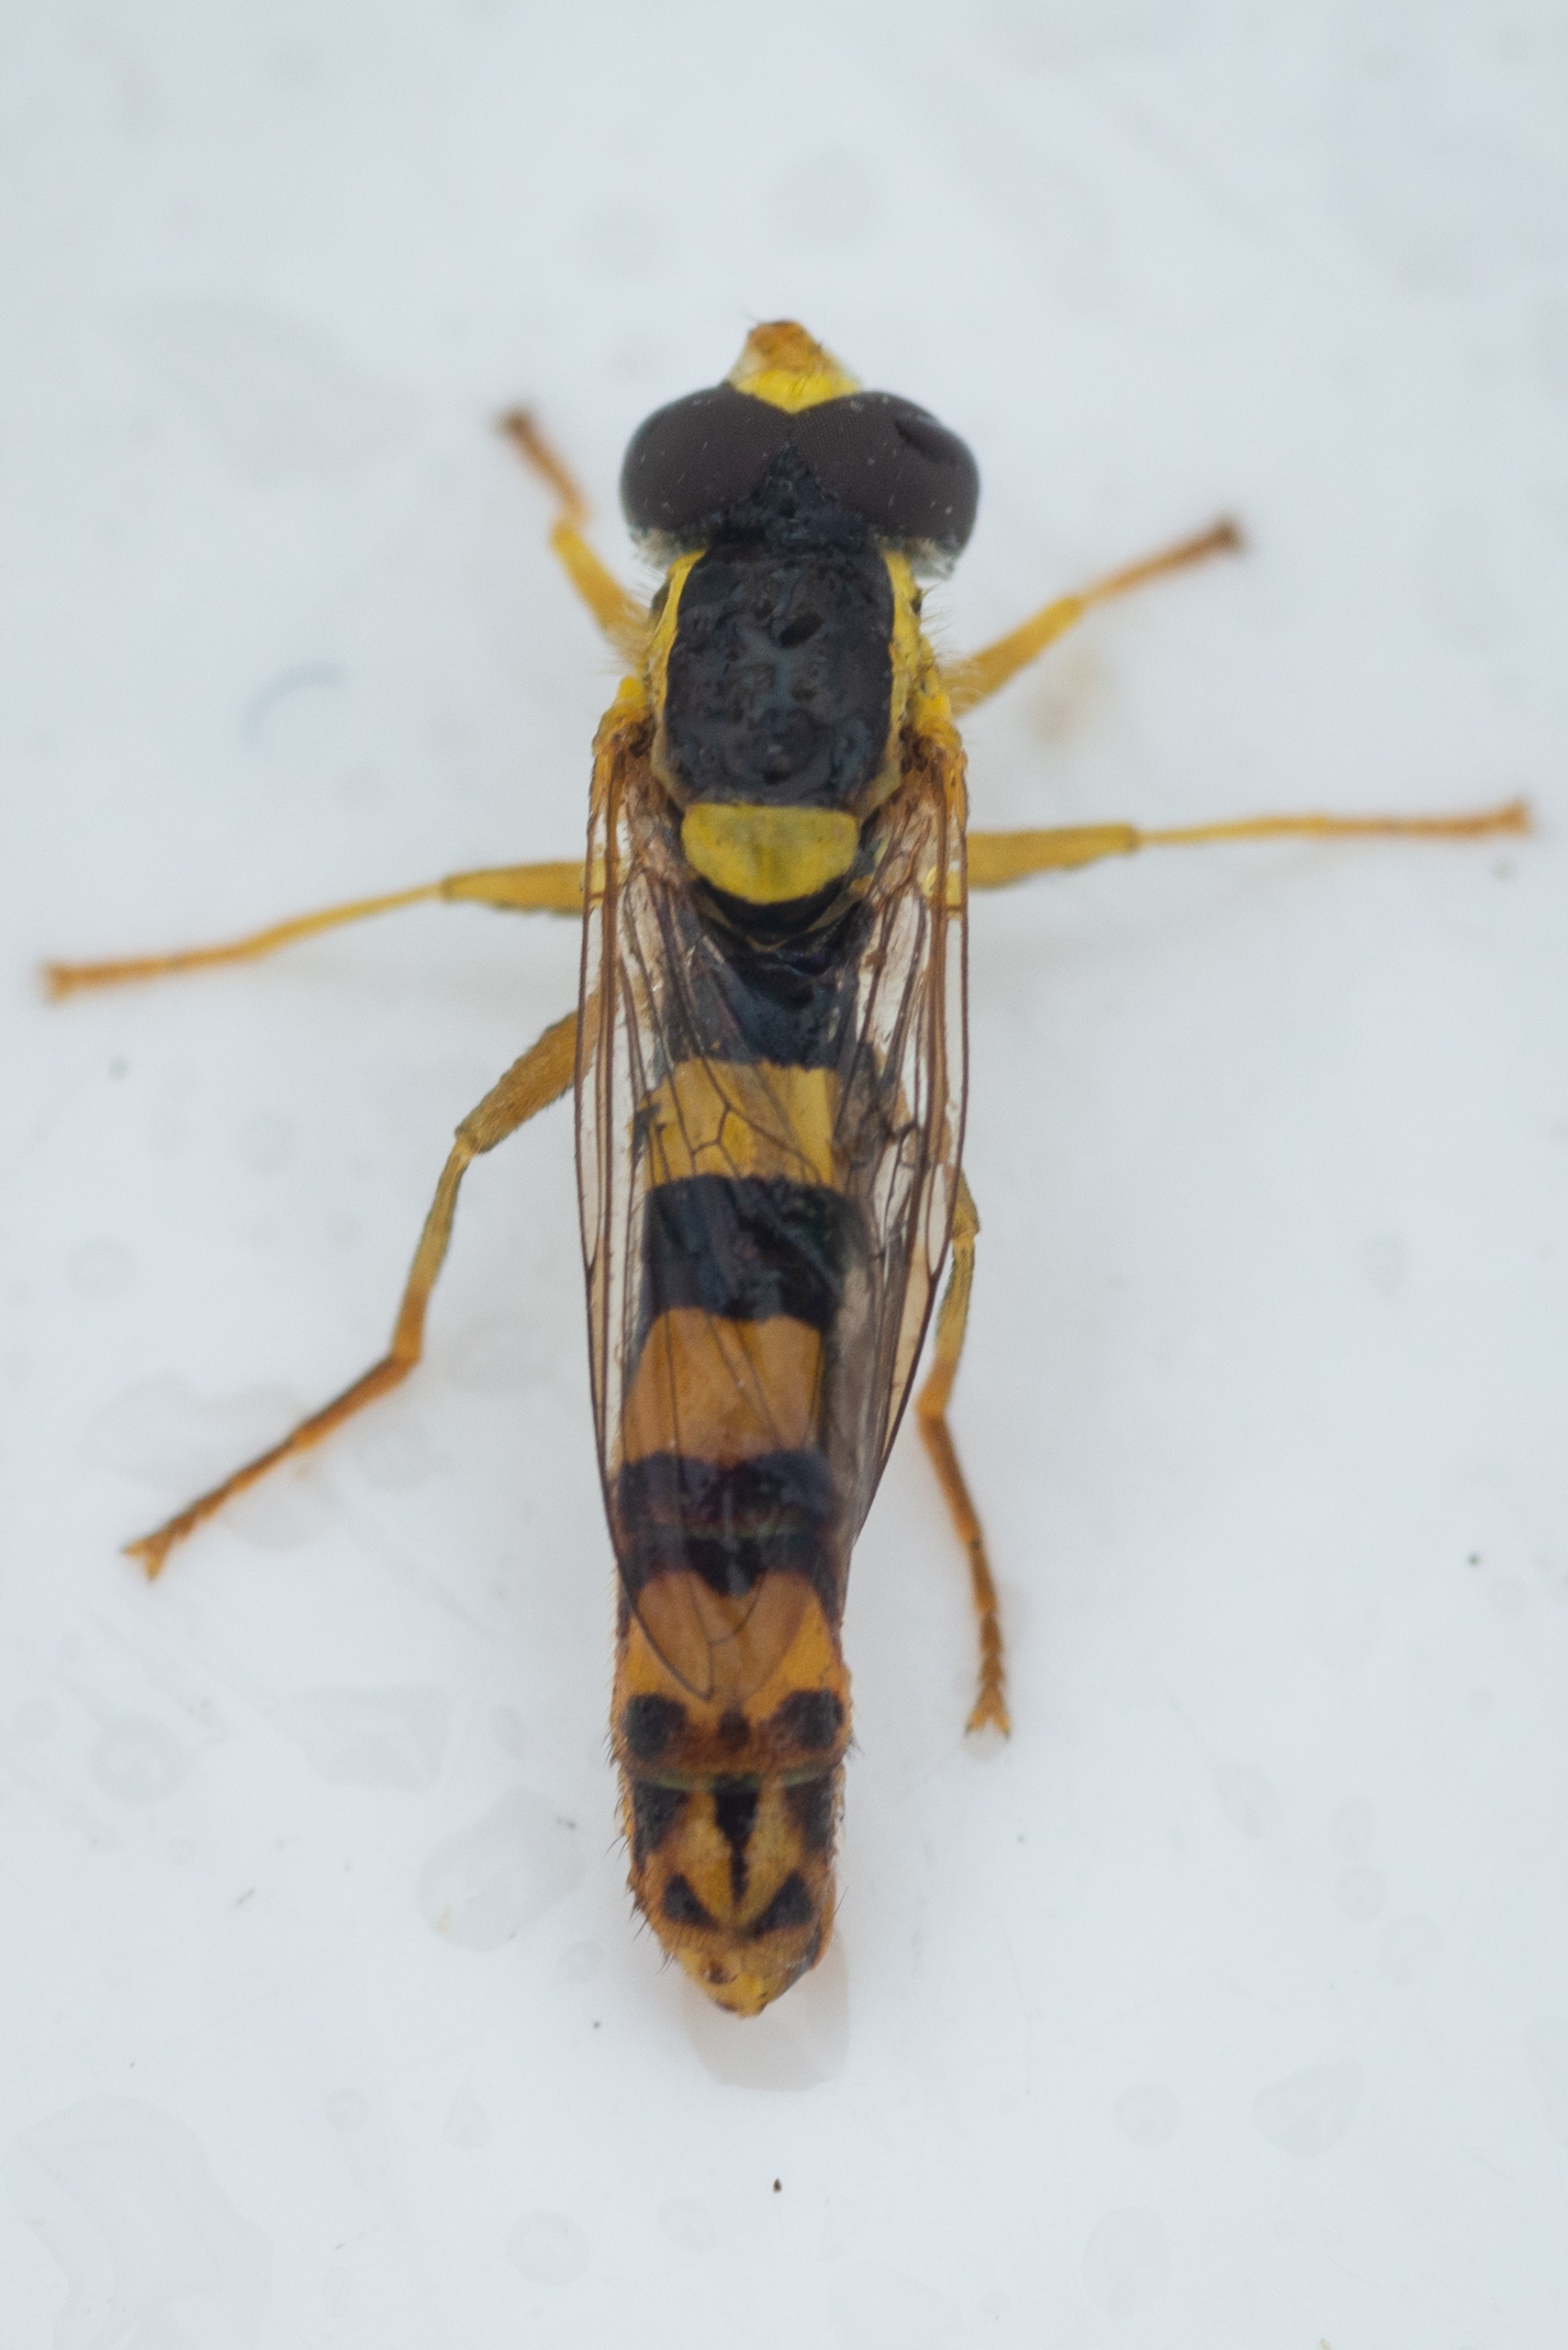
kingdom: Animalia
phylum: Arthropoda
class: Insecta
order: Diptera
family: Syrphidae
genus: Sphaerophoria
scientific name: Sphaerophoria scripta
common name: Almindelig kuglebærerflue
